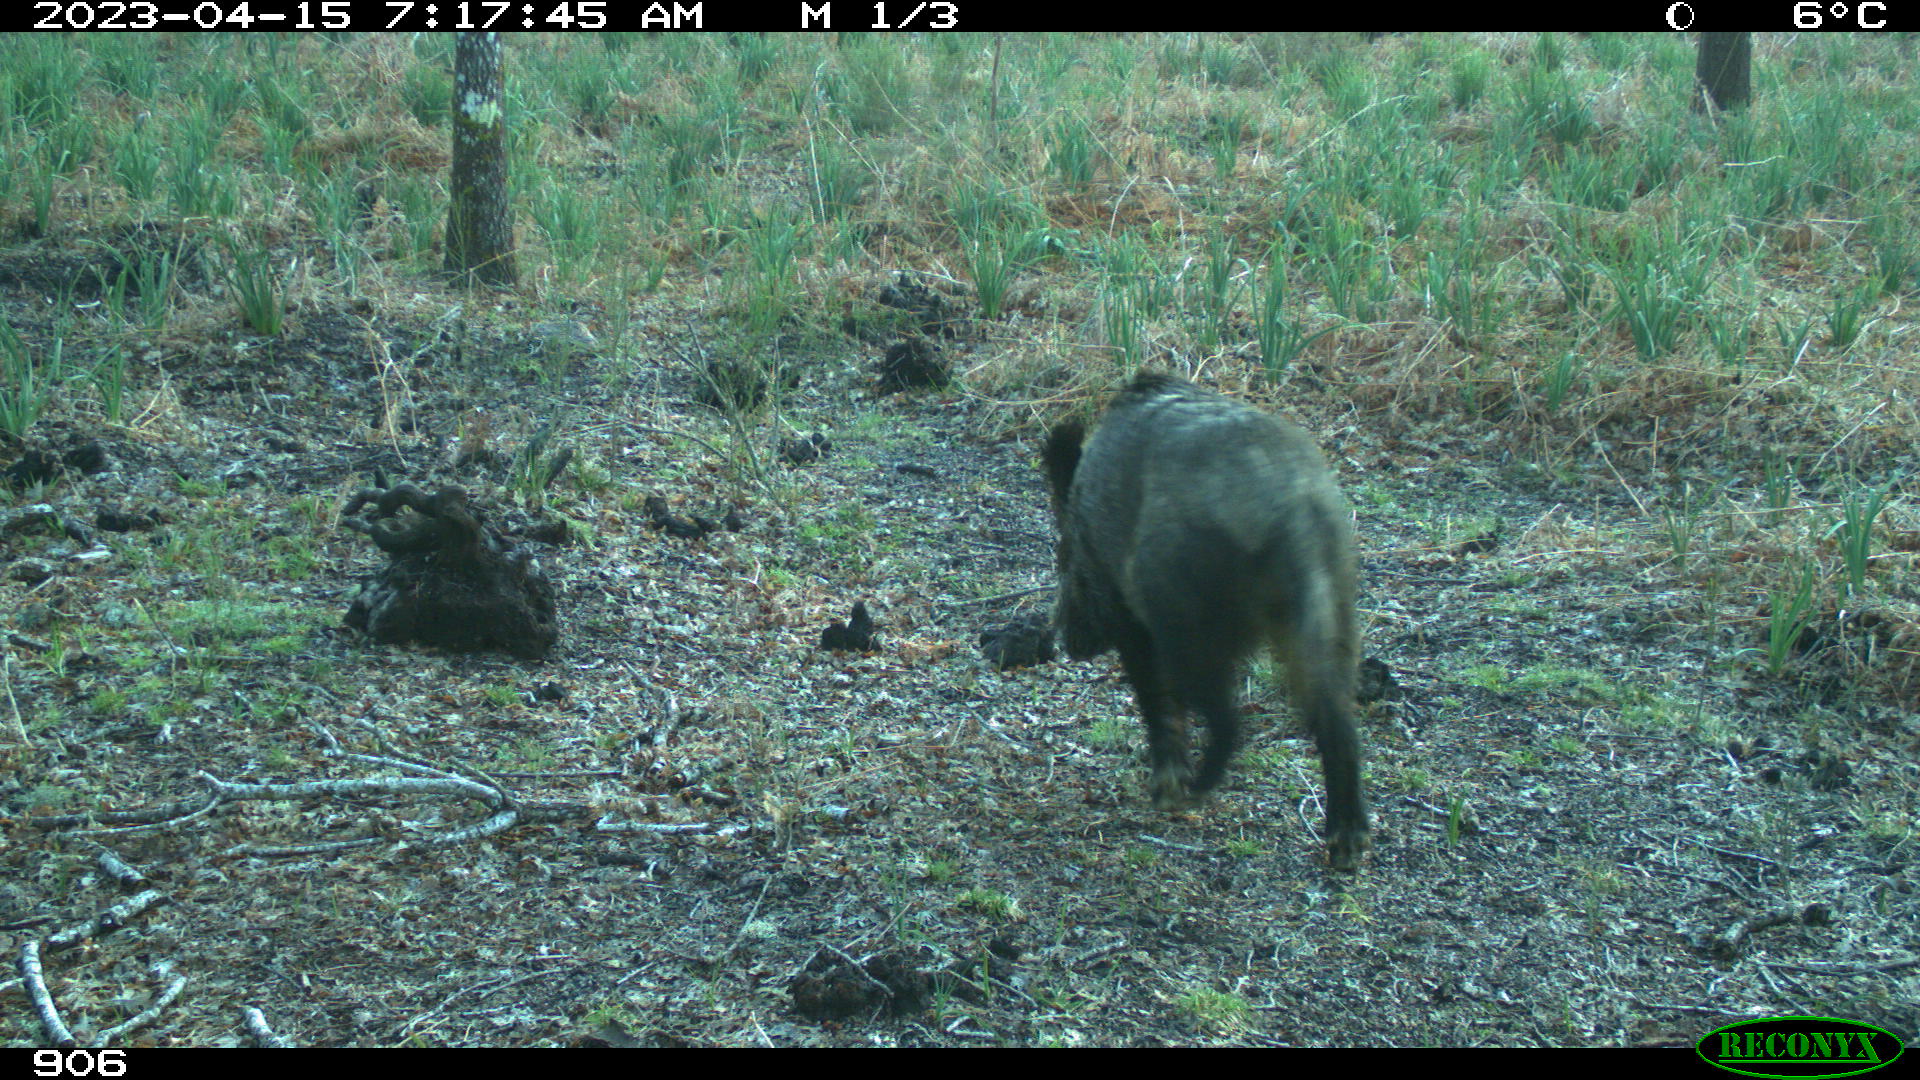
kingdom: Animalia
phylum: Chordata
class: Mammalia
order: Artiodactyla
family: Suidae
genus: Sus
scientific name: Sus scrofa
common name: Wild boar
